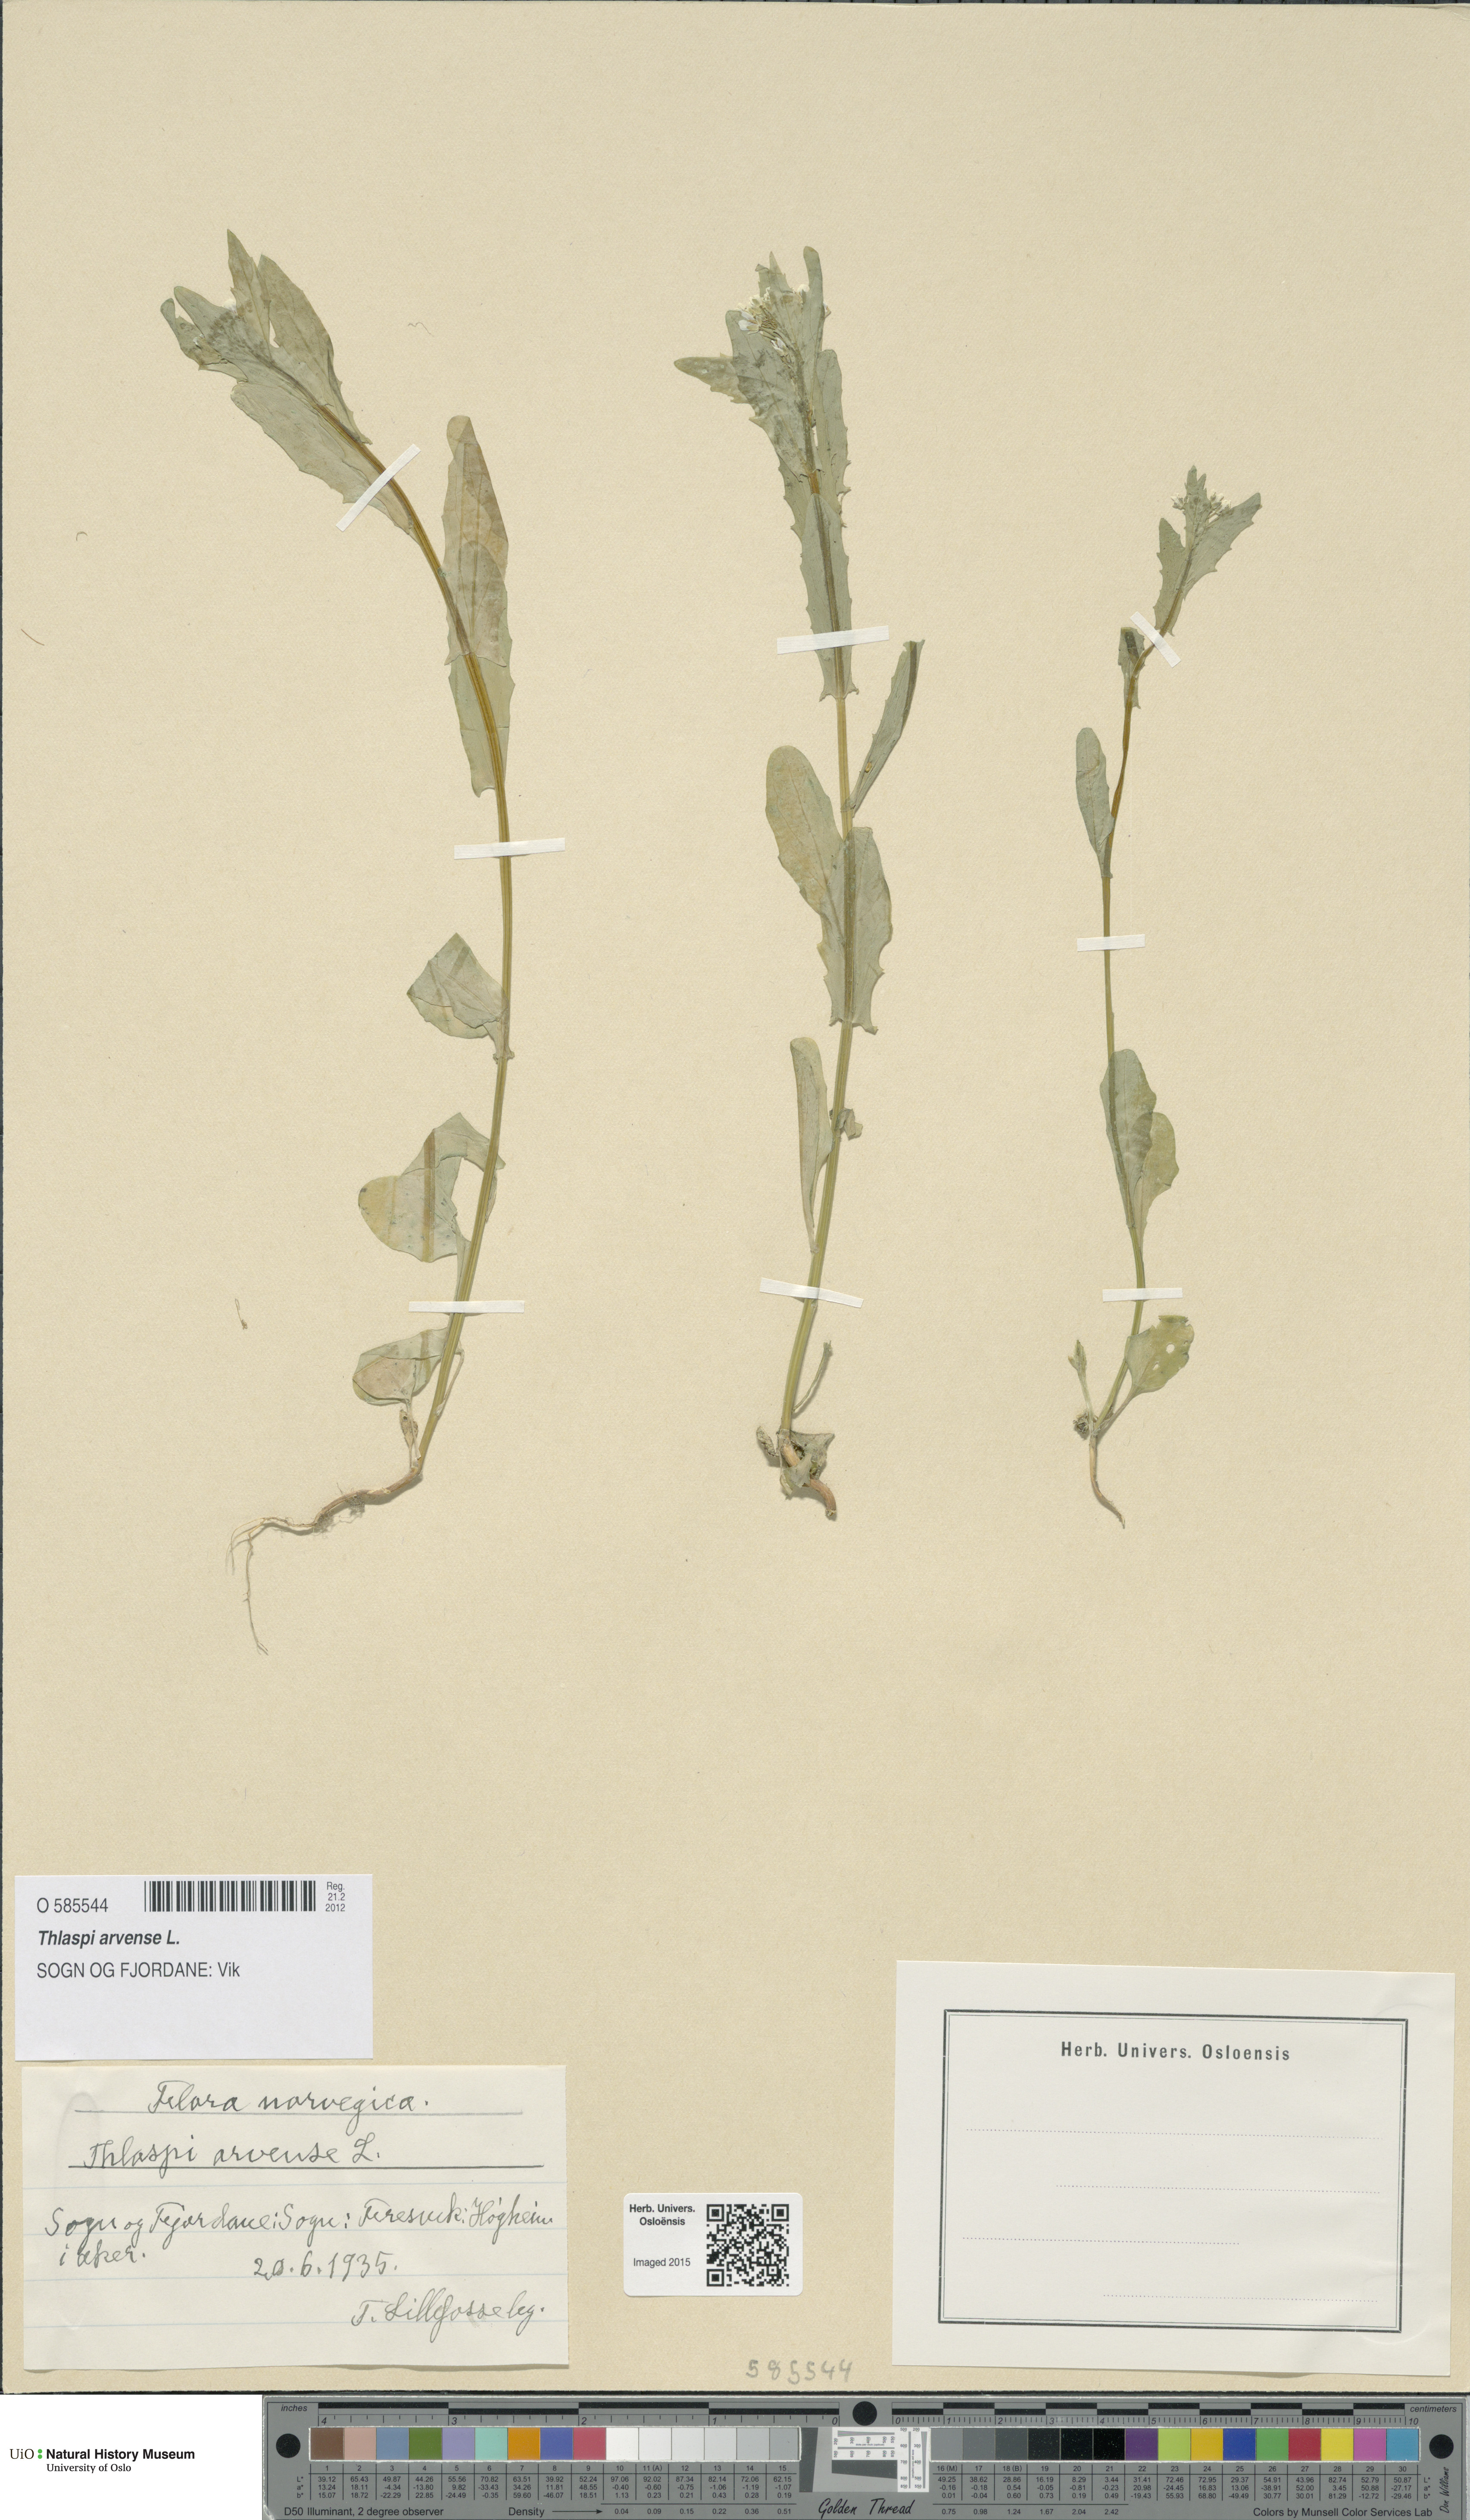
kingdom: Plantae
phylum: Tracheophyta
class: Magnoliopsida
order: Brassicales
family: Brassicaceae
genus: Thlaspi
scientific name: Thlaspi arvense
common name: Field pennycress
